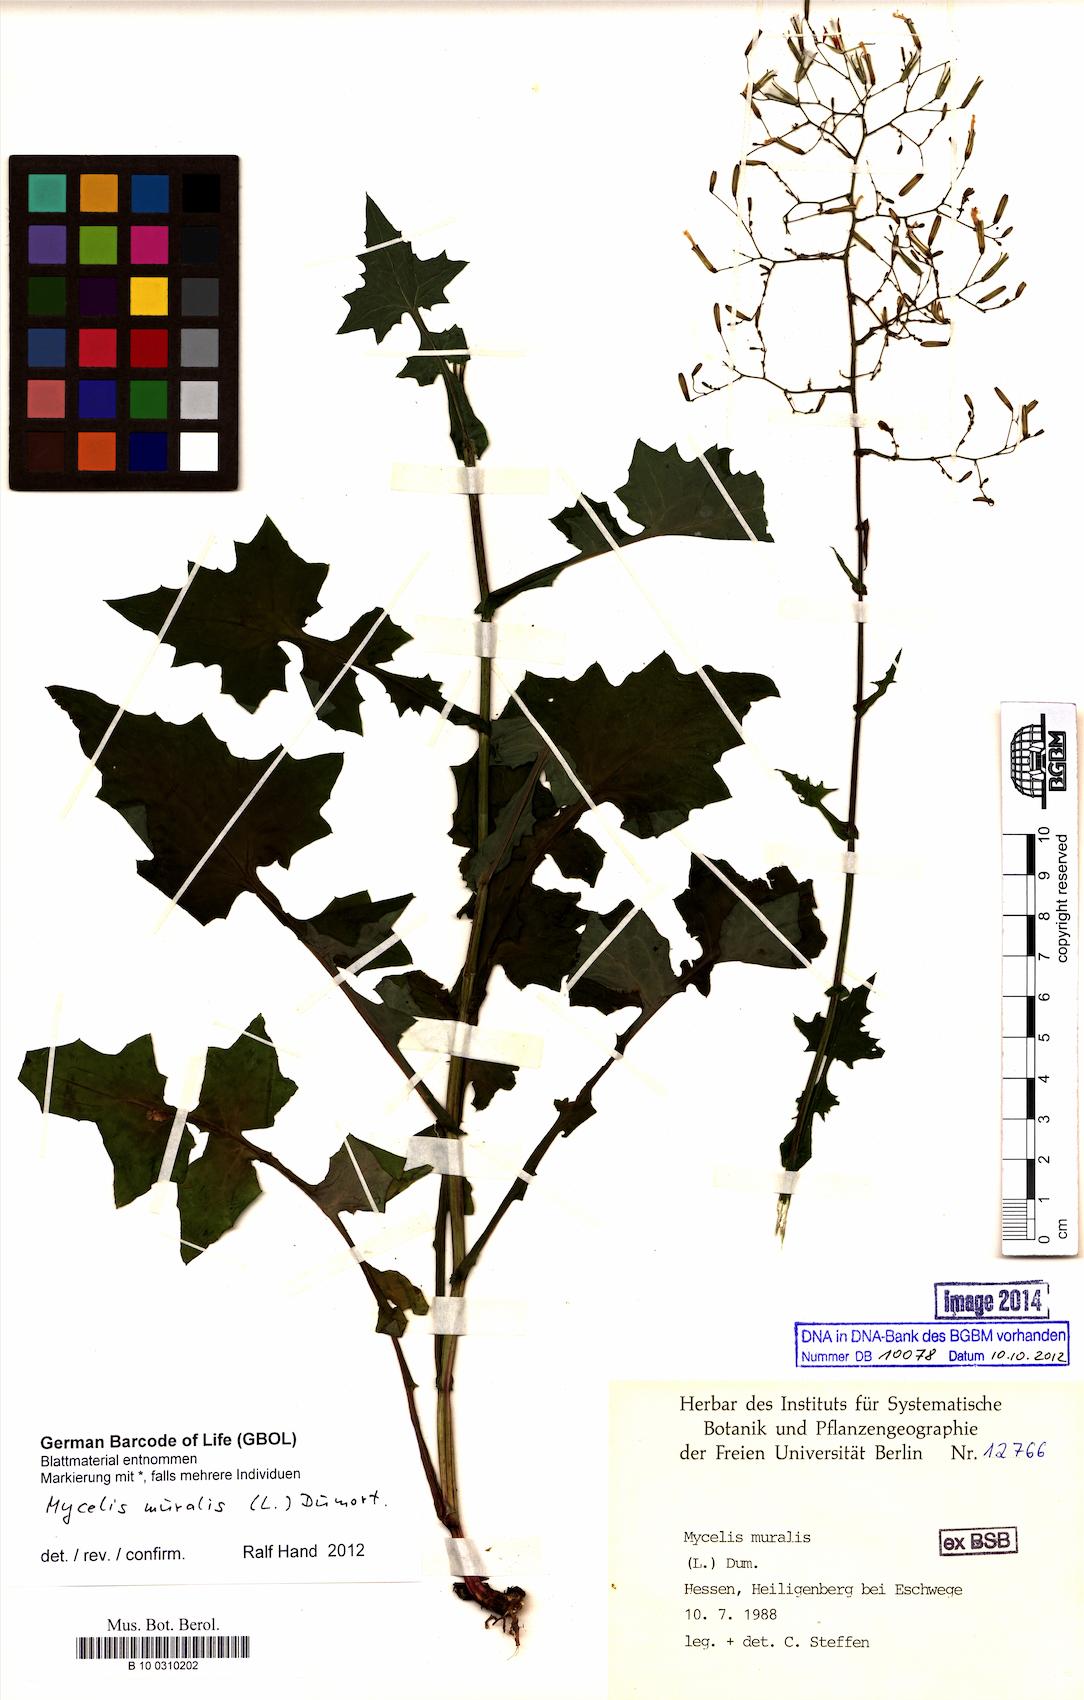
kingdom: Plantae
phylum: Tracheophyta
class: Magnoliopsida
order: Asterales
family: Asteraceae
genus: Mycelis
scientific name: Mycelis muralis
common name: Wall lettuce
